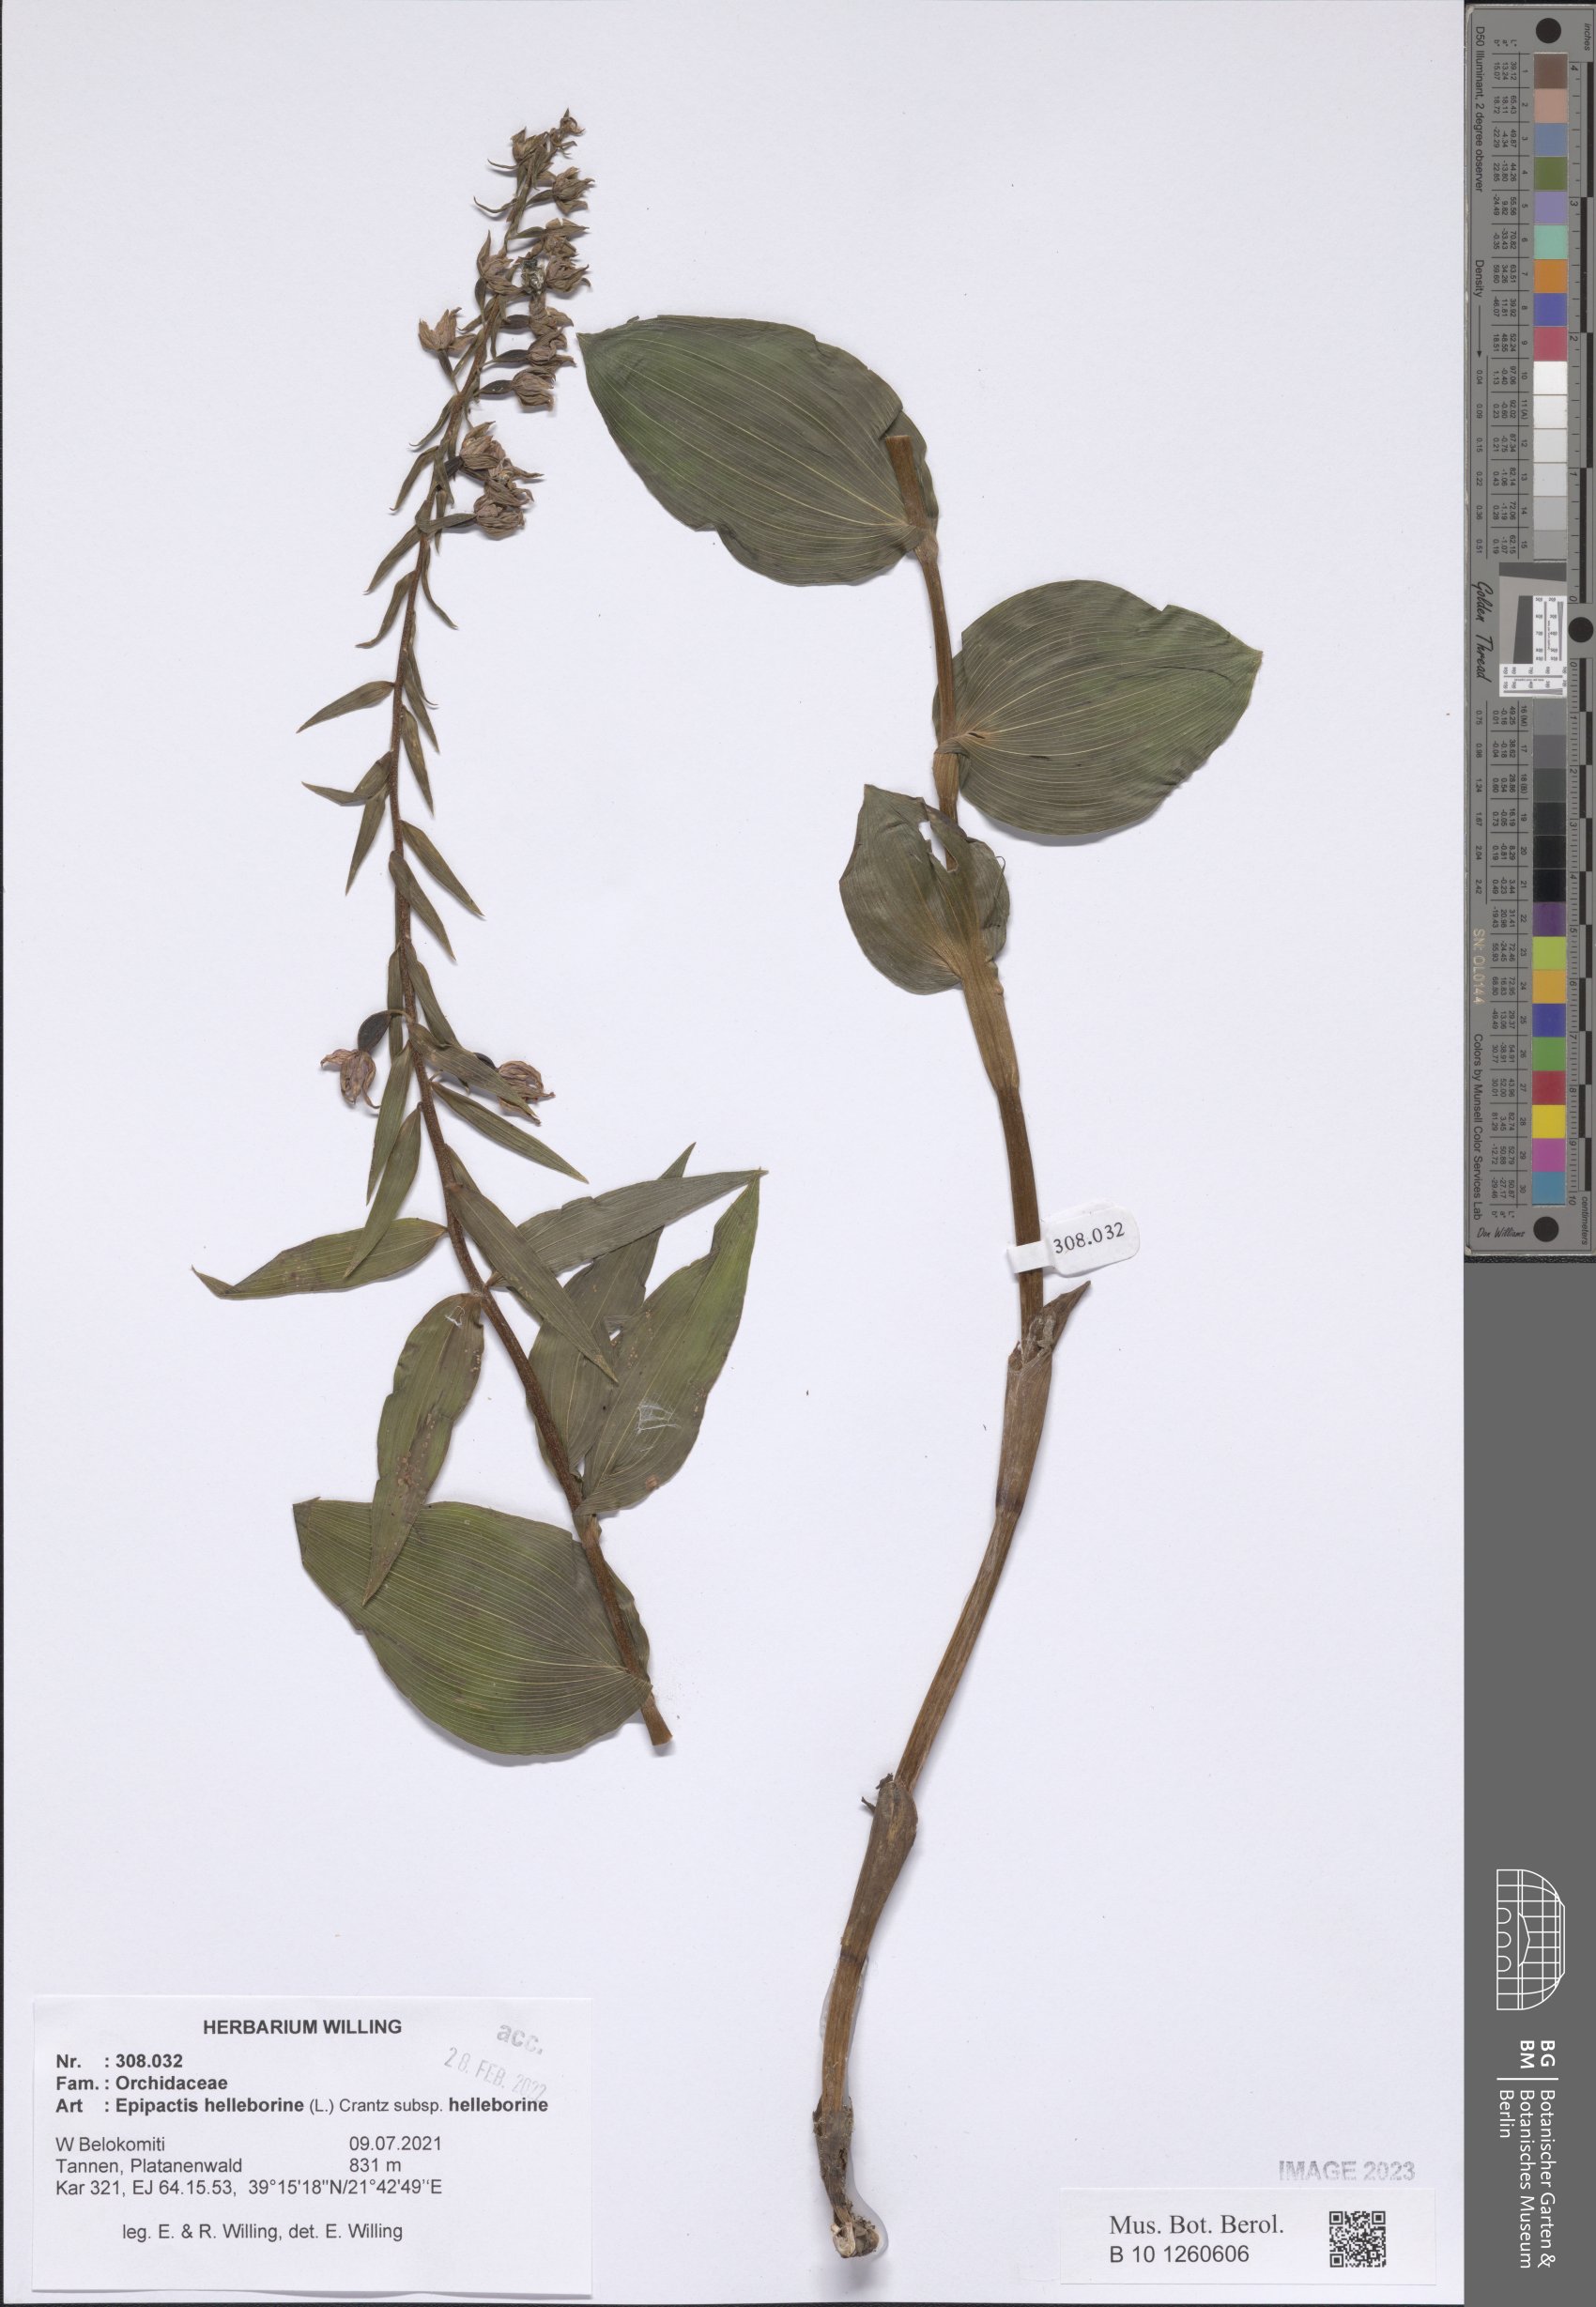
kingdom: Plantae
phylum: Tracheophyta
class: Liliopsida
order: Asparagales
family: Orchidaceae
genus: Epipactis
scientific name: Epipactis helleborine
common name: Broad-leaved helleborine
